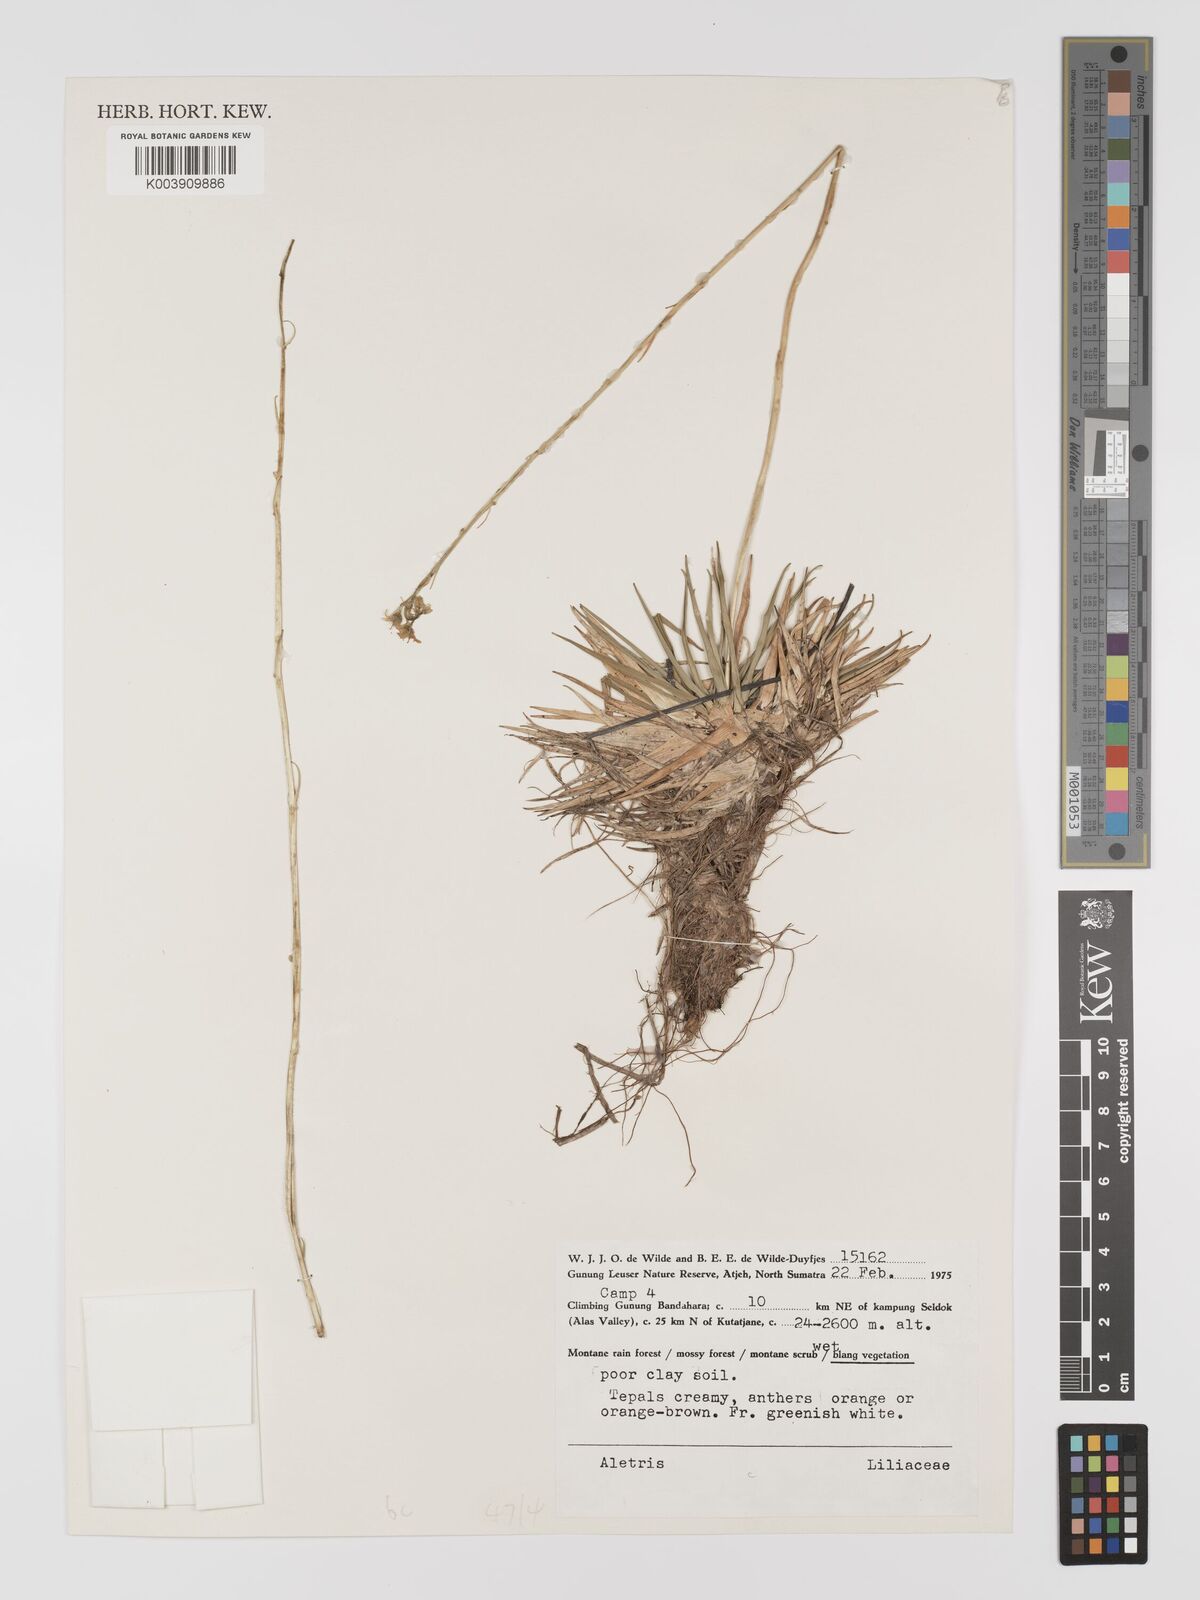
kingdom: Plantae
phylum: Tracheophyta
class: Liliopsida
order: Dioscoreales
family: Nartheciaceae
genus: Aletris
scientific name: Aletris
